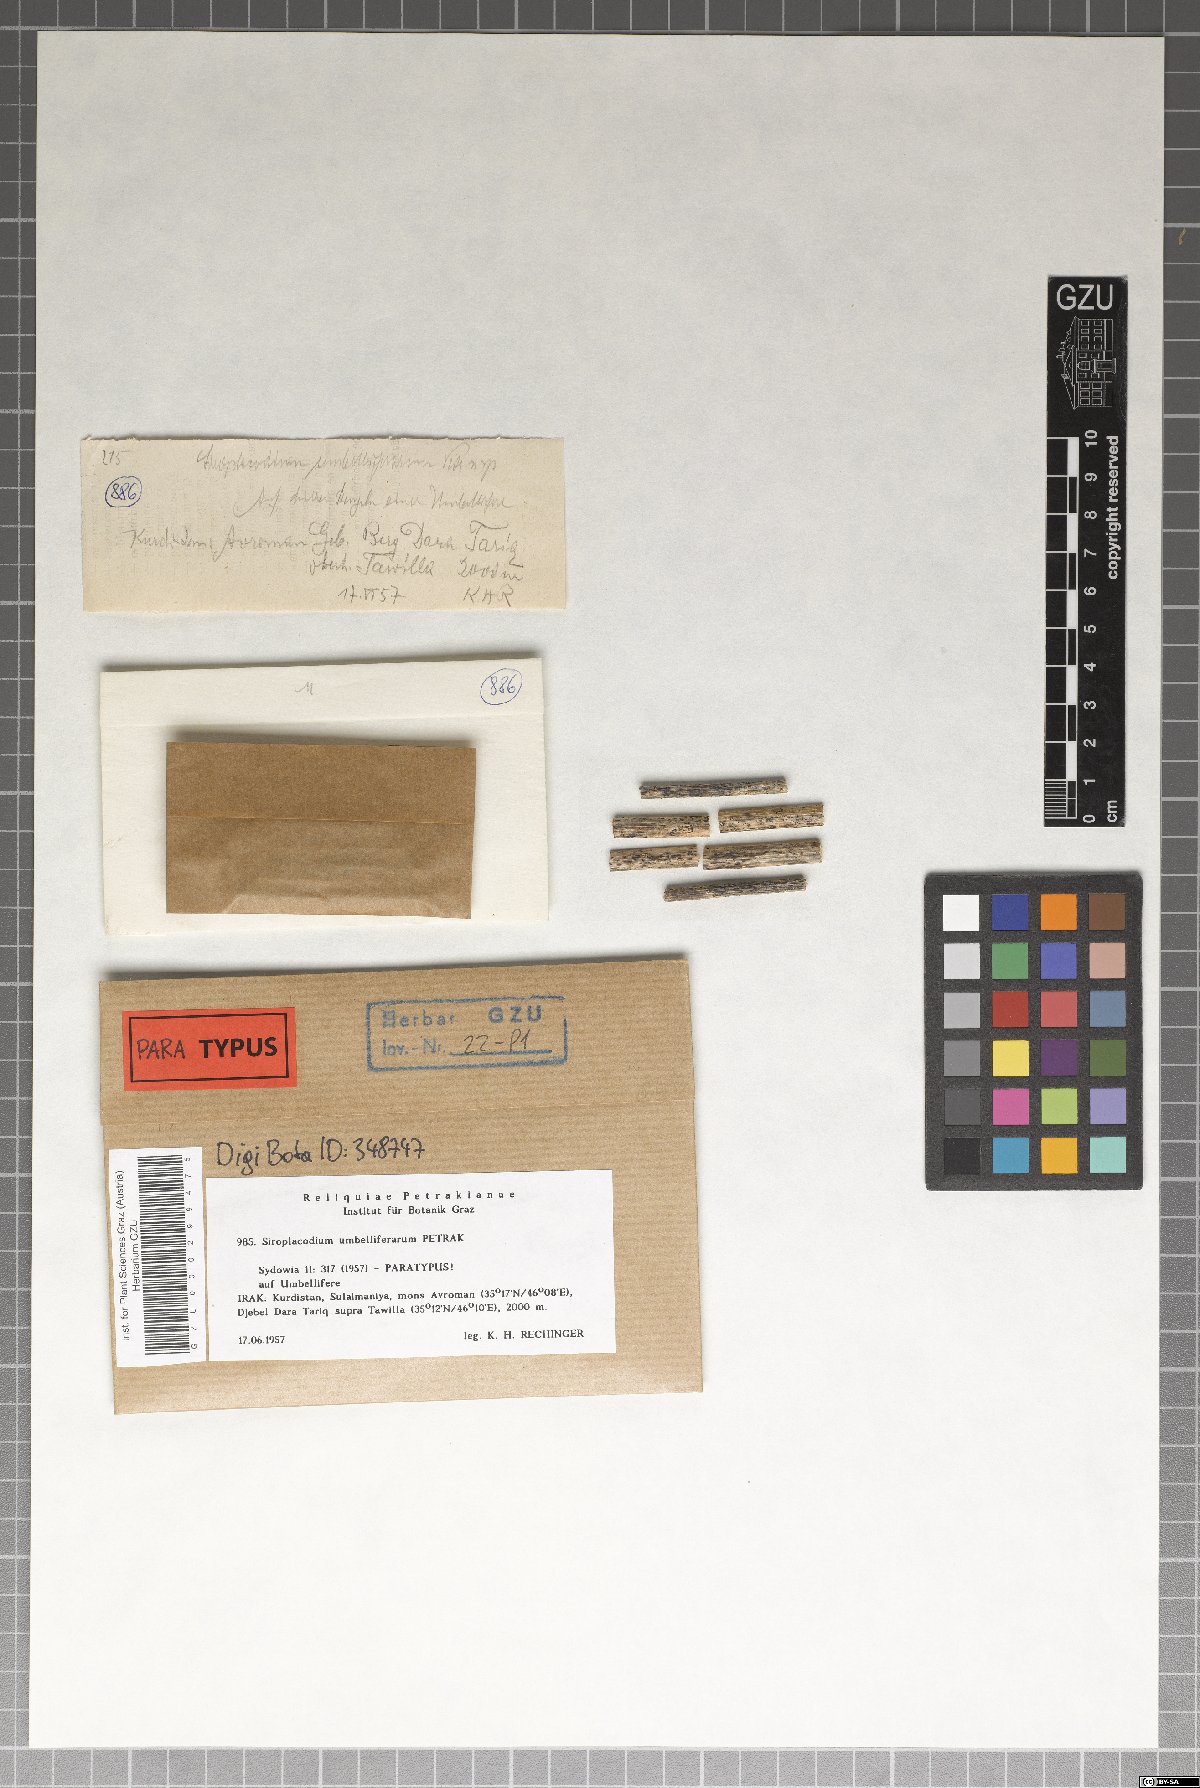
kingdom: Fungi
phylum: Ascomycota
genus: Siroplacodium
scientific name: Siroplacodium umbelliferarum
